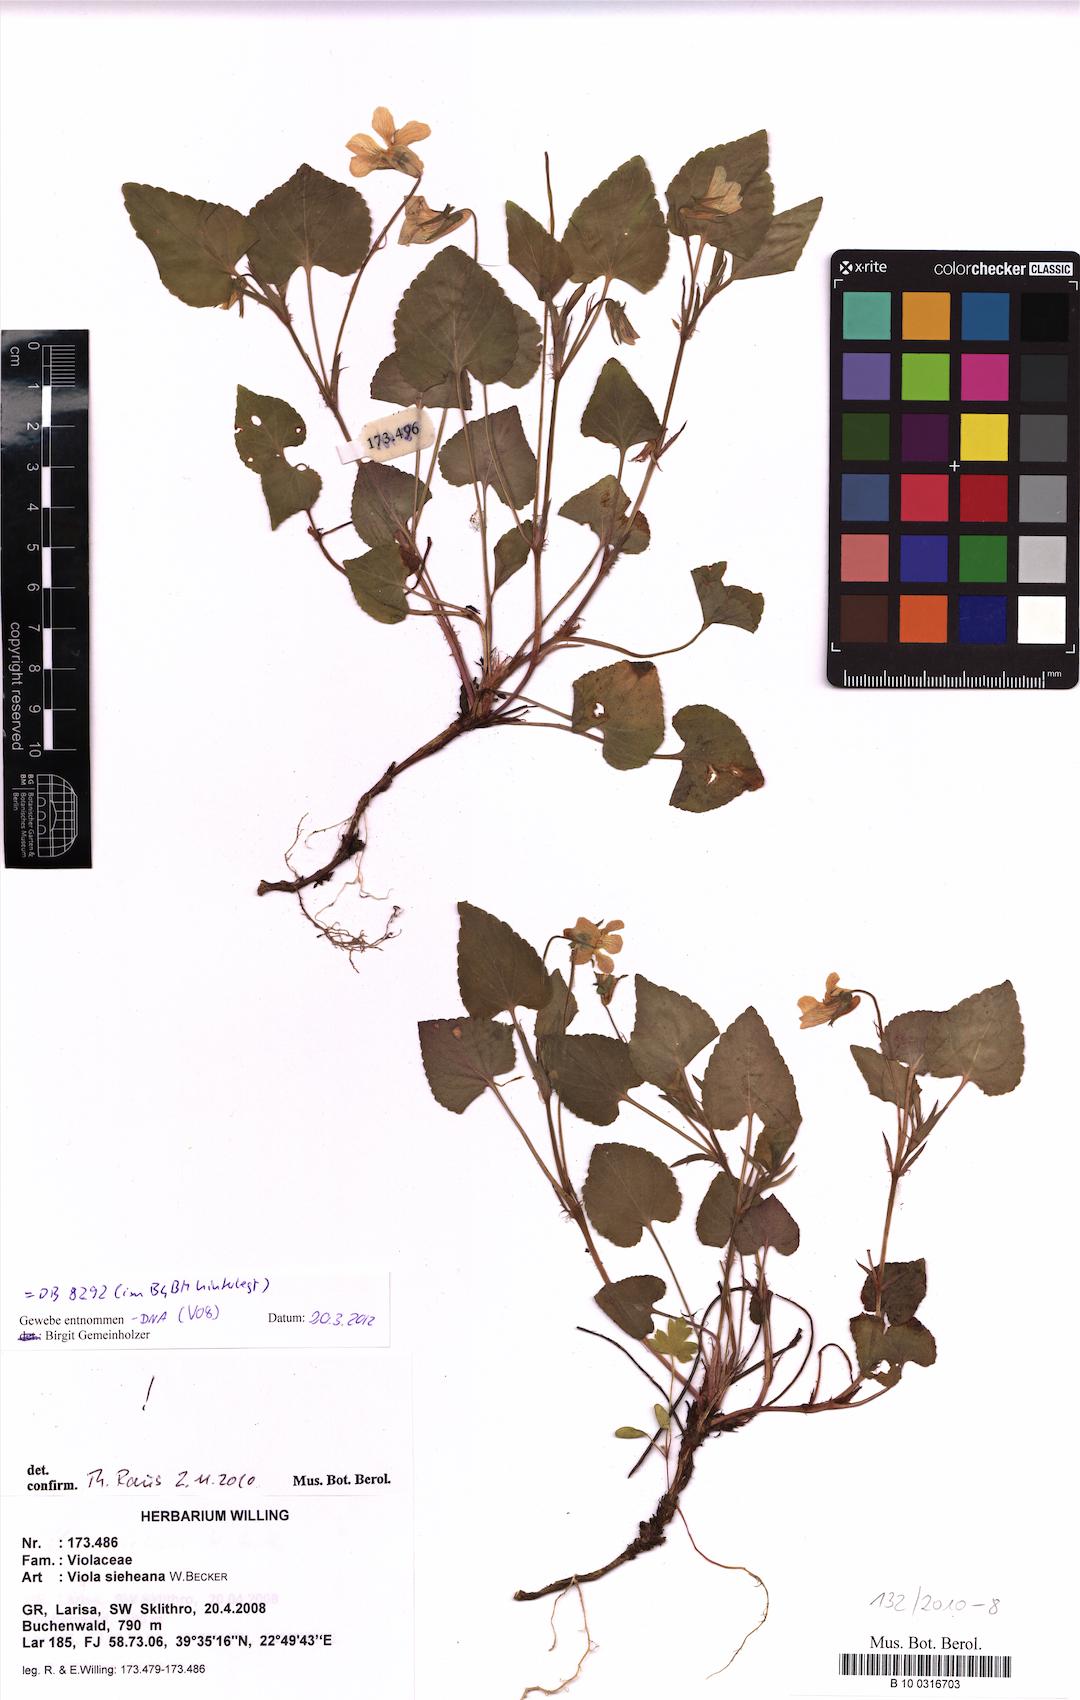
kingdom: Plantae
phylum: Tracheophyta
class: Magnoliopsida
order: Malpighiales
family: Violaceae
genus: Viola
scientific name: Viola sieheana
